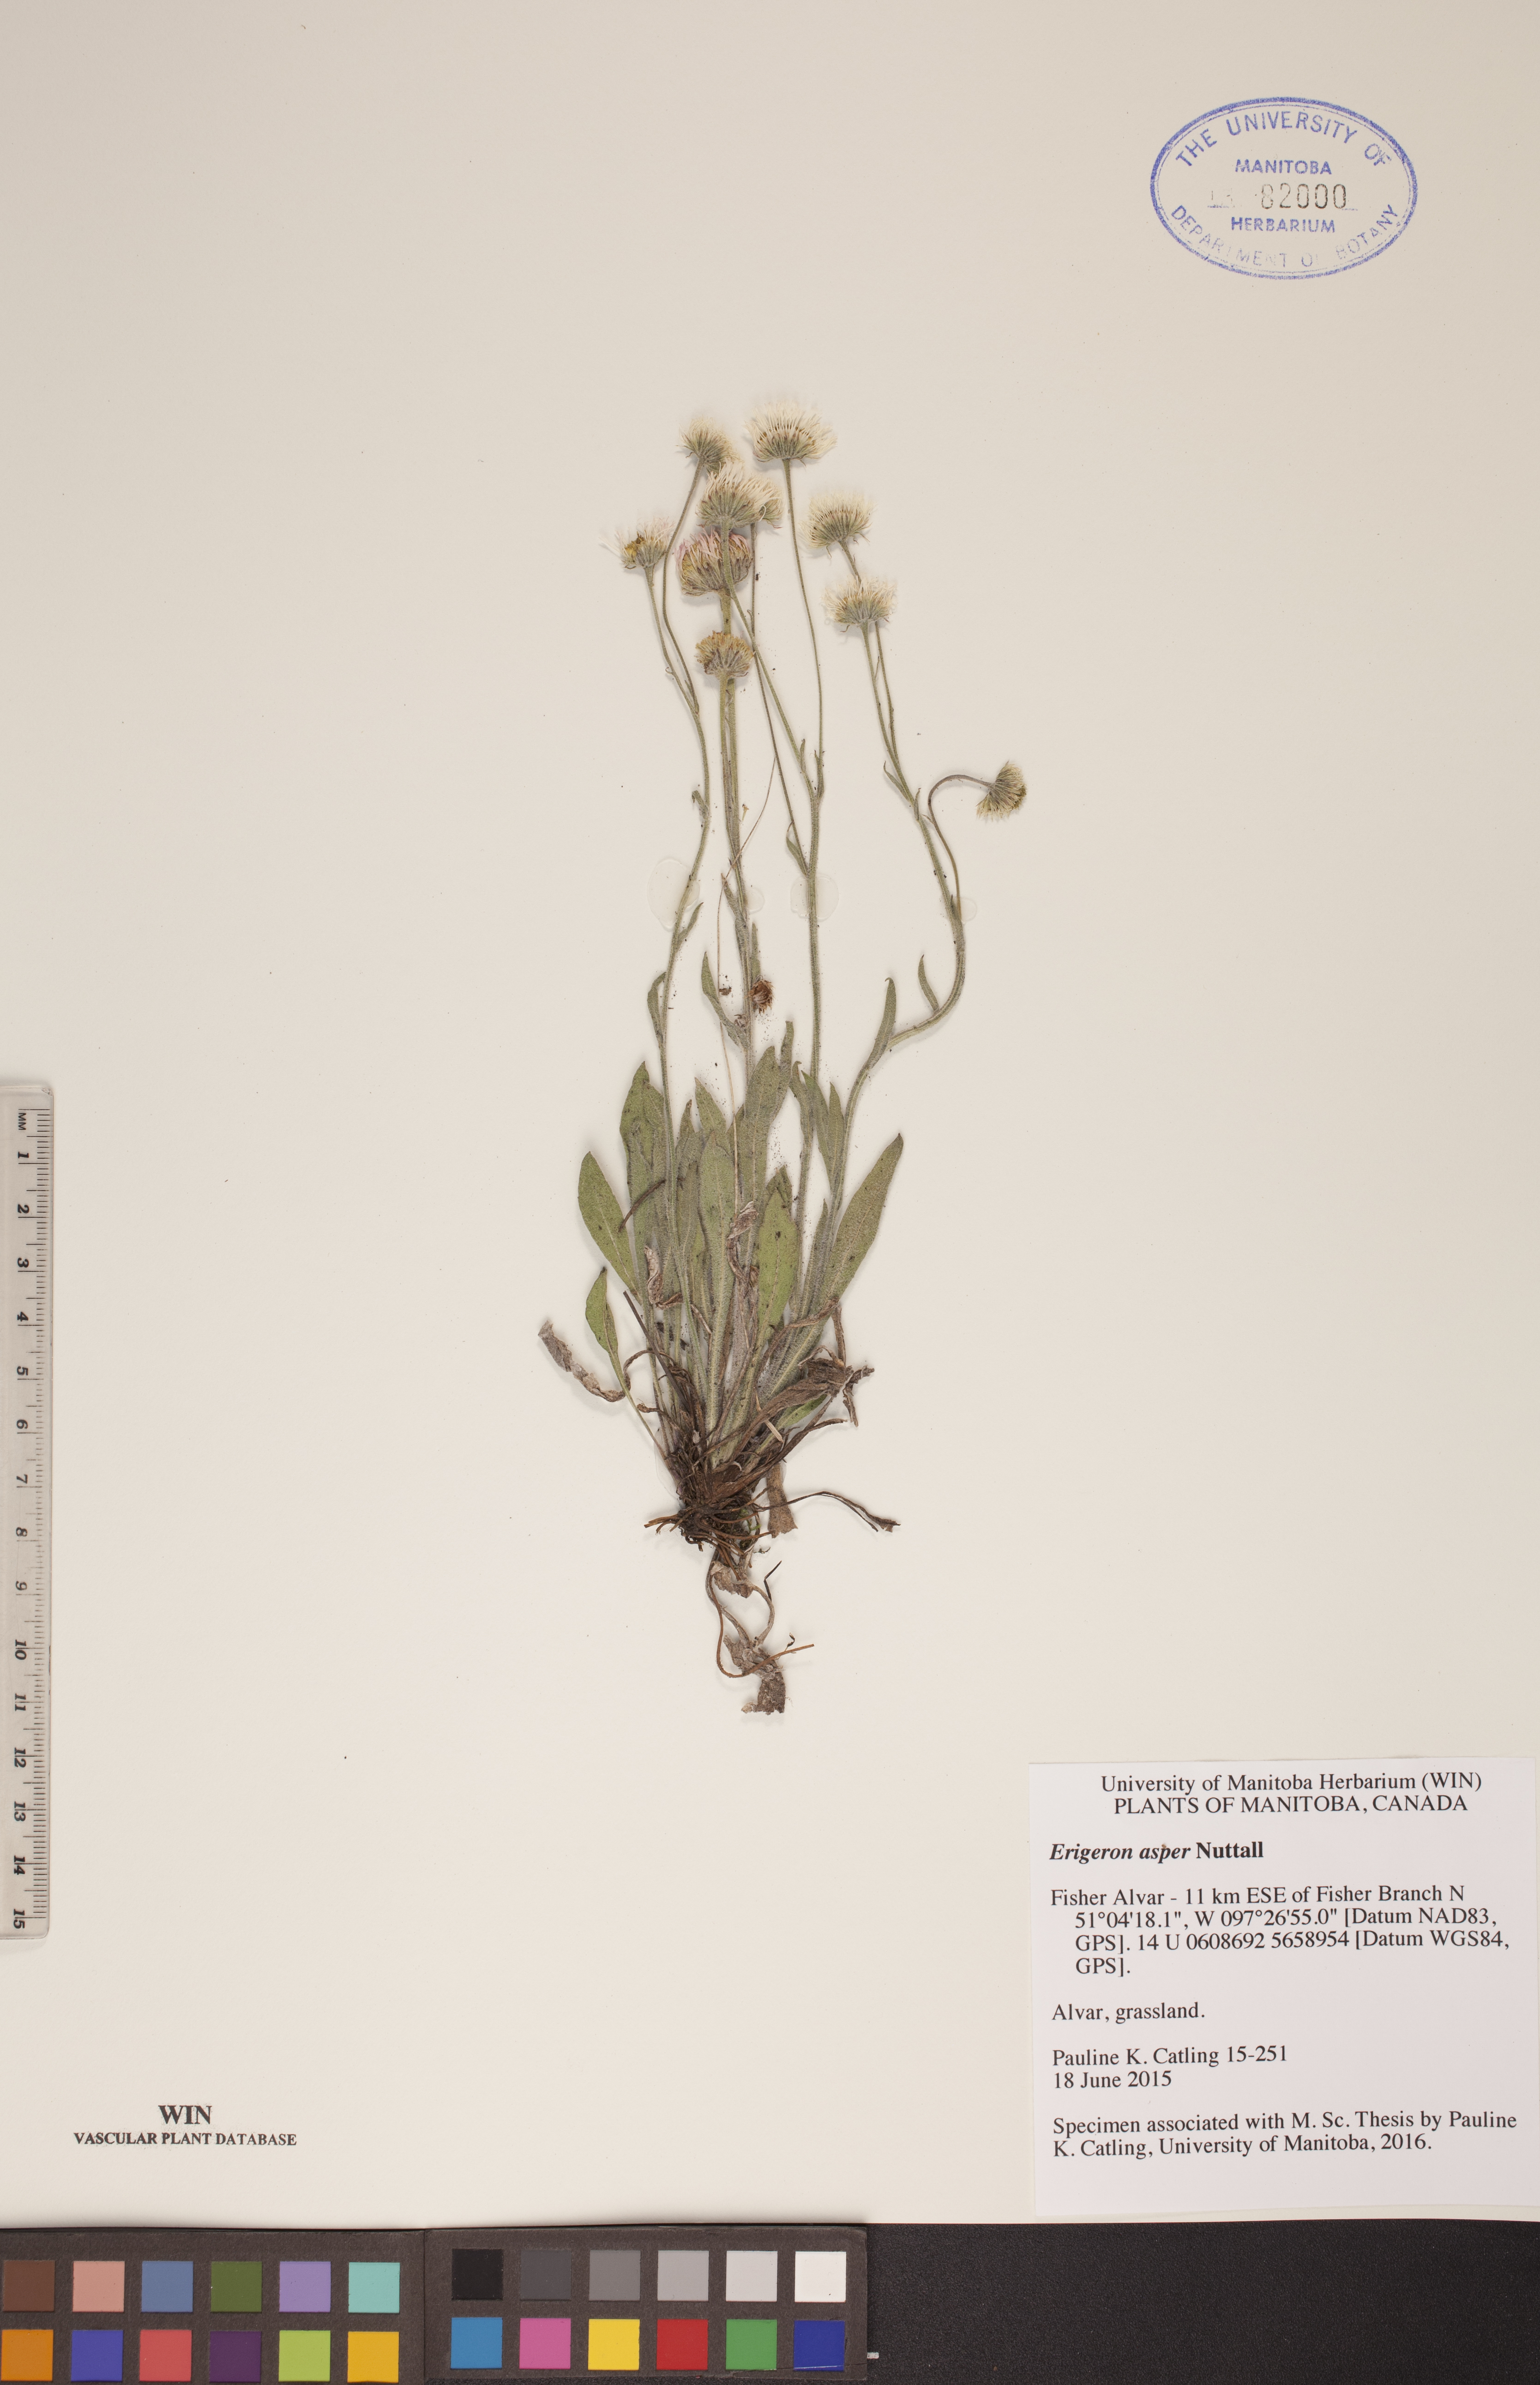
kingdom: Plantae
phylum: Tracheophyta
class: Magnoliopsida
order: Fabales
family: Fabaceae
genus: Vicia
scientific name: Vicia americana
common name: American vetch
